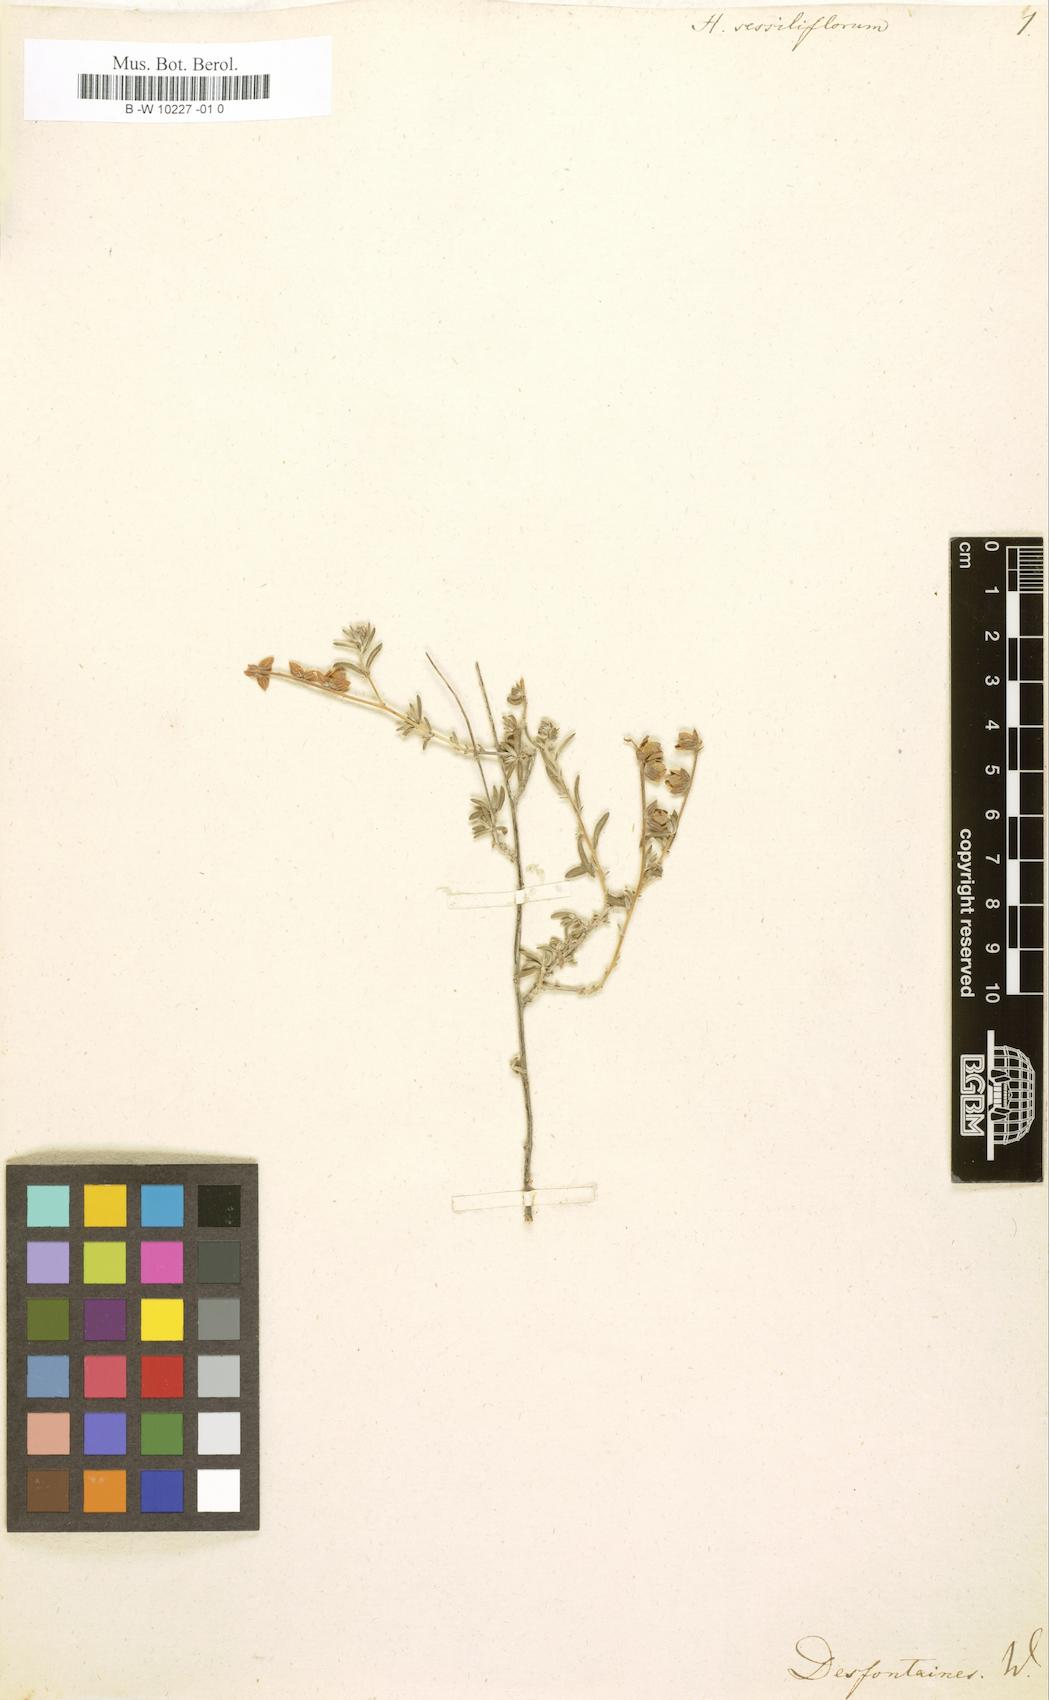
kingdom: Plantae
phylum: Tracheophyta
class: Magnoliopsida
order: Malvales
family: Cistaceae
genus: Helianthemum
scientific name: Helianthemum lippii
